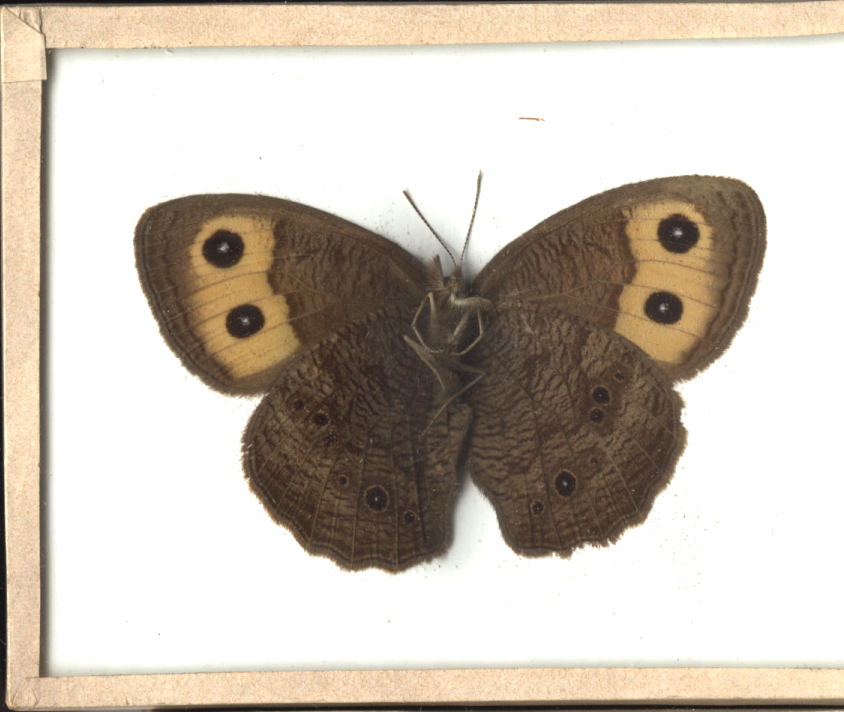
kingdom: Animalia
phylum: Arthropoda
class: Insecta
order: Lepidoptera
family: Nymphalidae
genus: Cercyonis
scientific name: Cercyonis pegala
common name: Common Wood Nymph
